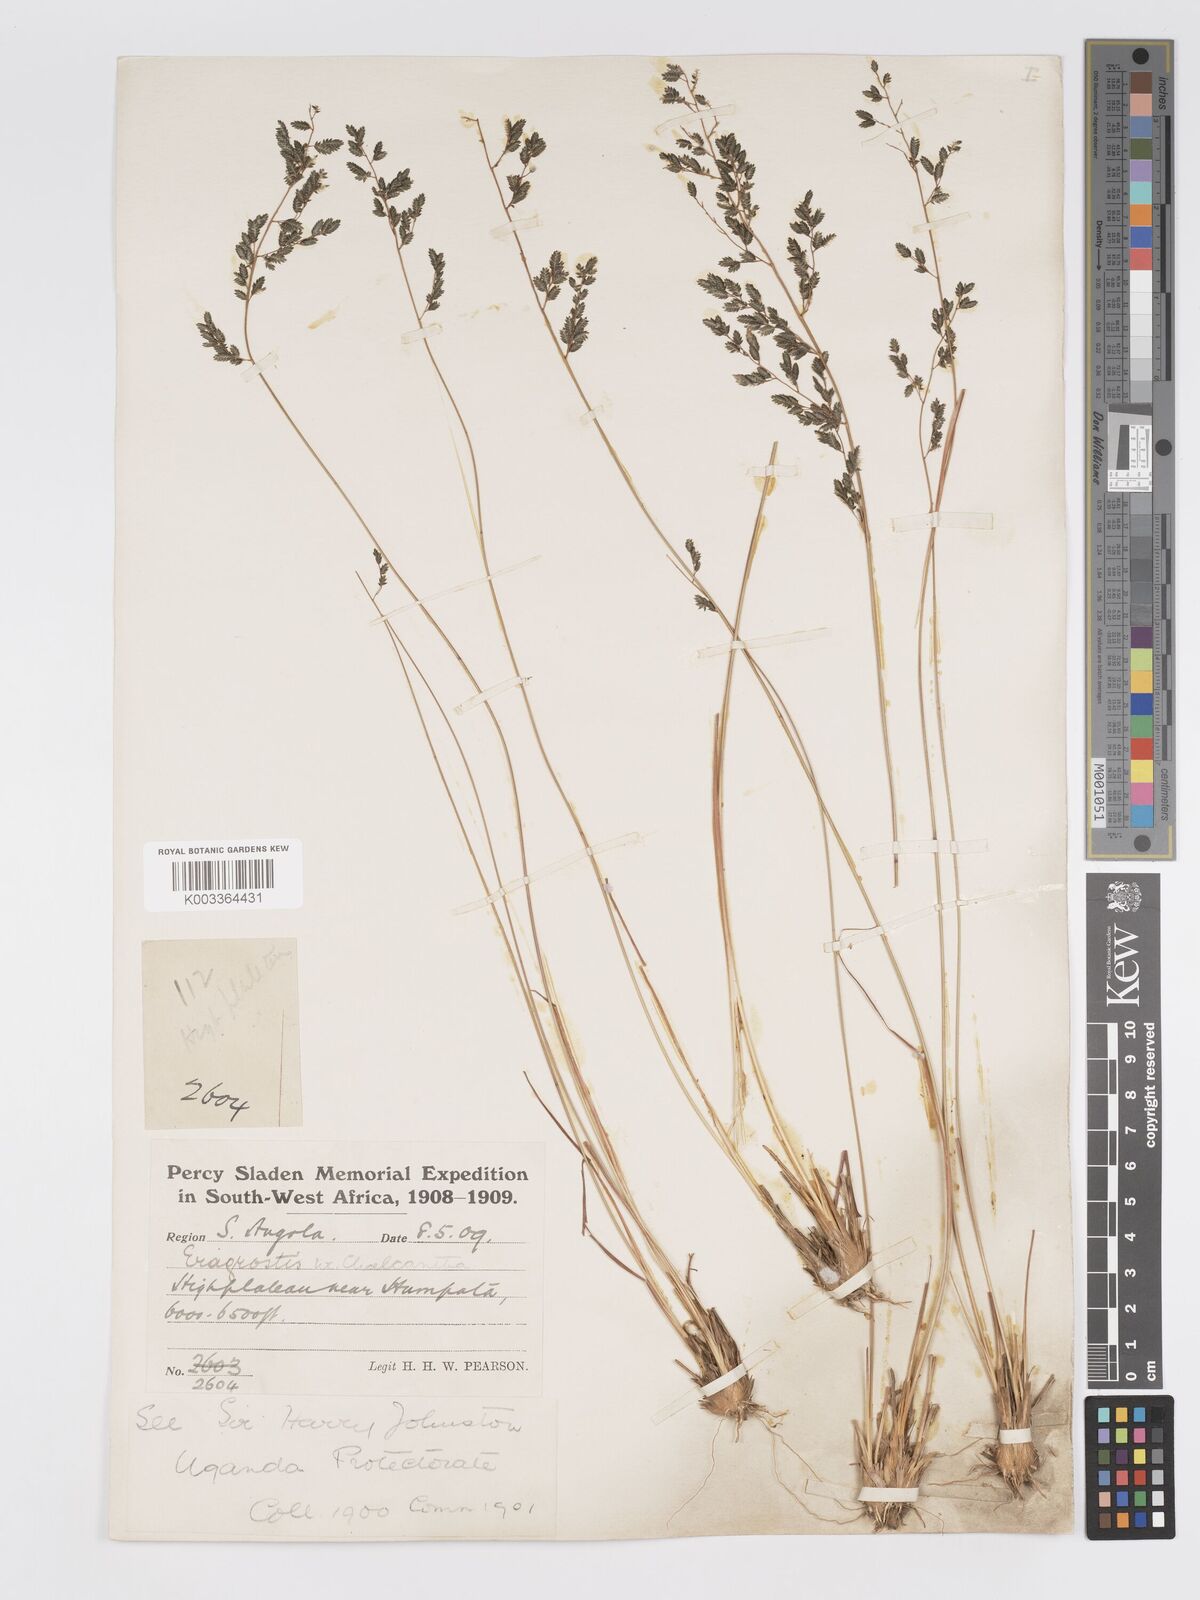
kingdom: Plantae
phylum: Tracheophyta
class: Liliopsida
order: Poales
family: Poaceae
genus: Eragrostis
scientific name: Eragrostis sclerantha
